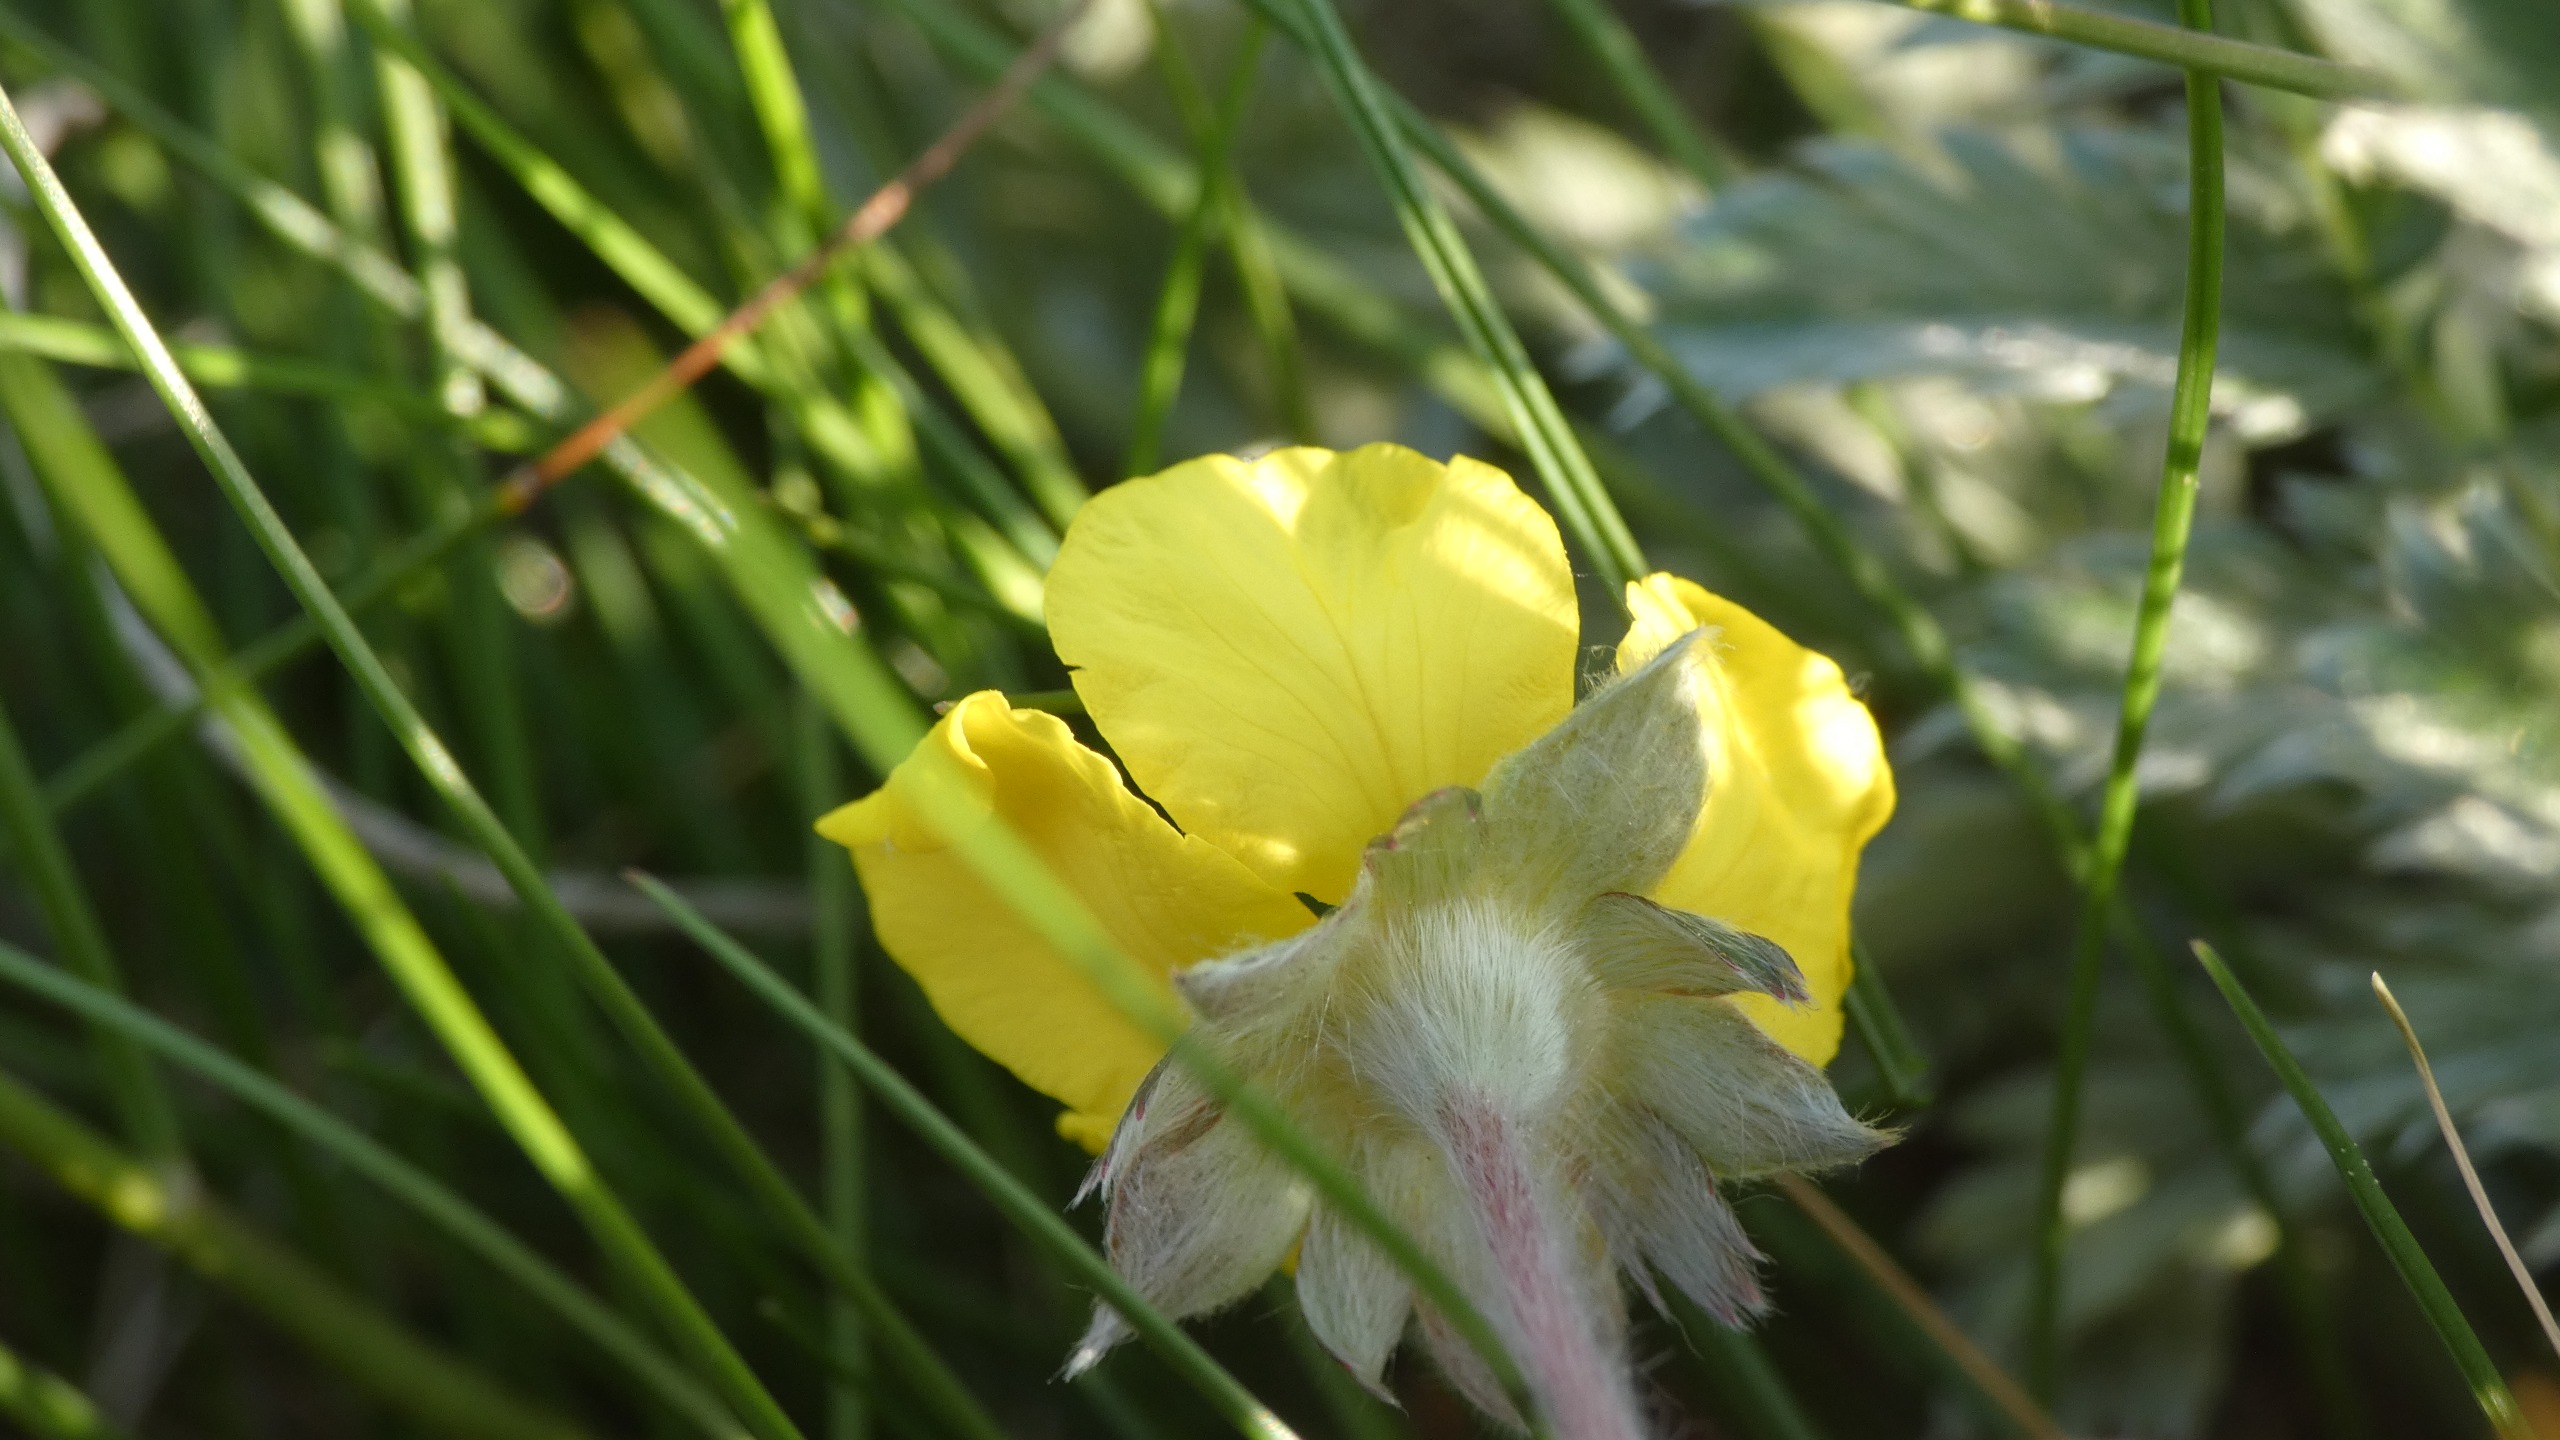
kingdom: Plantae
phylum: Tracheophyta
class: Magnoliopsida
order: Rosales
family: Rosaceae
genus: Argentina
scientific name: Argentina anserina
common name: Gåsepotentil
